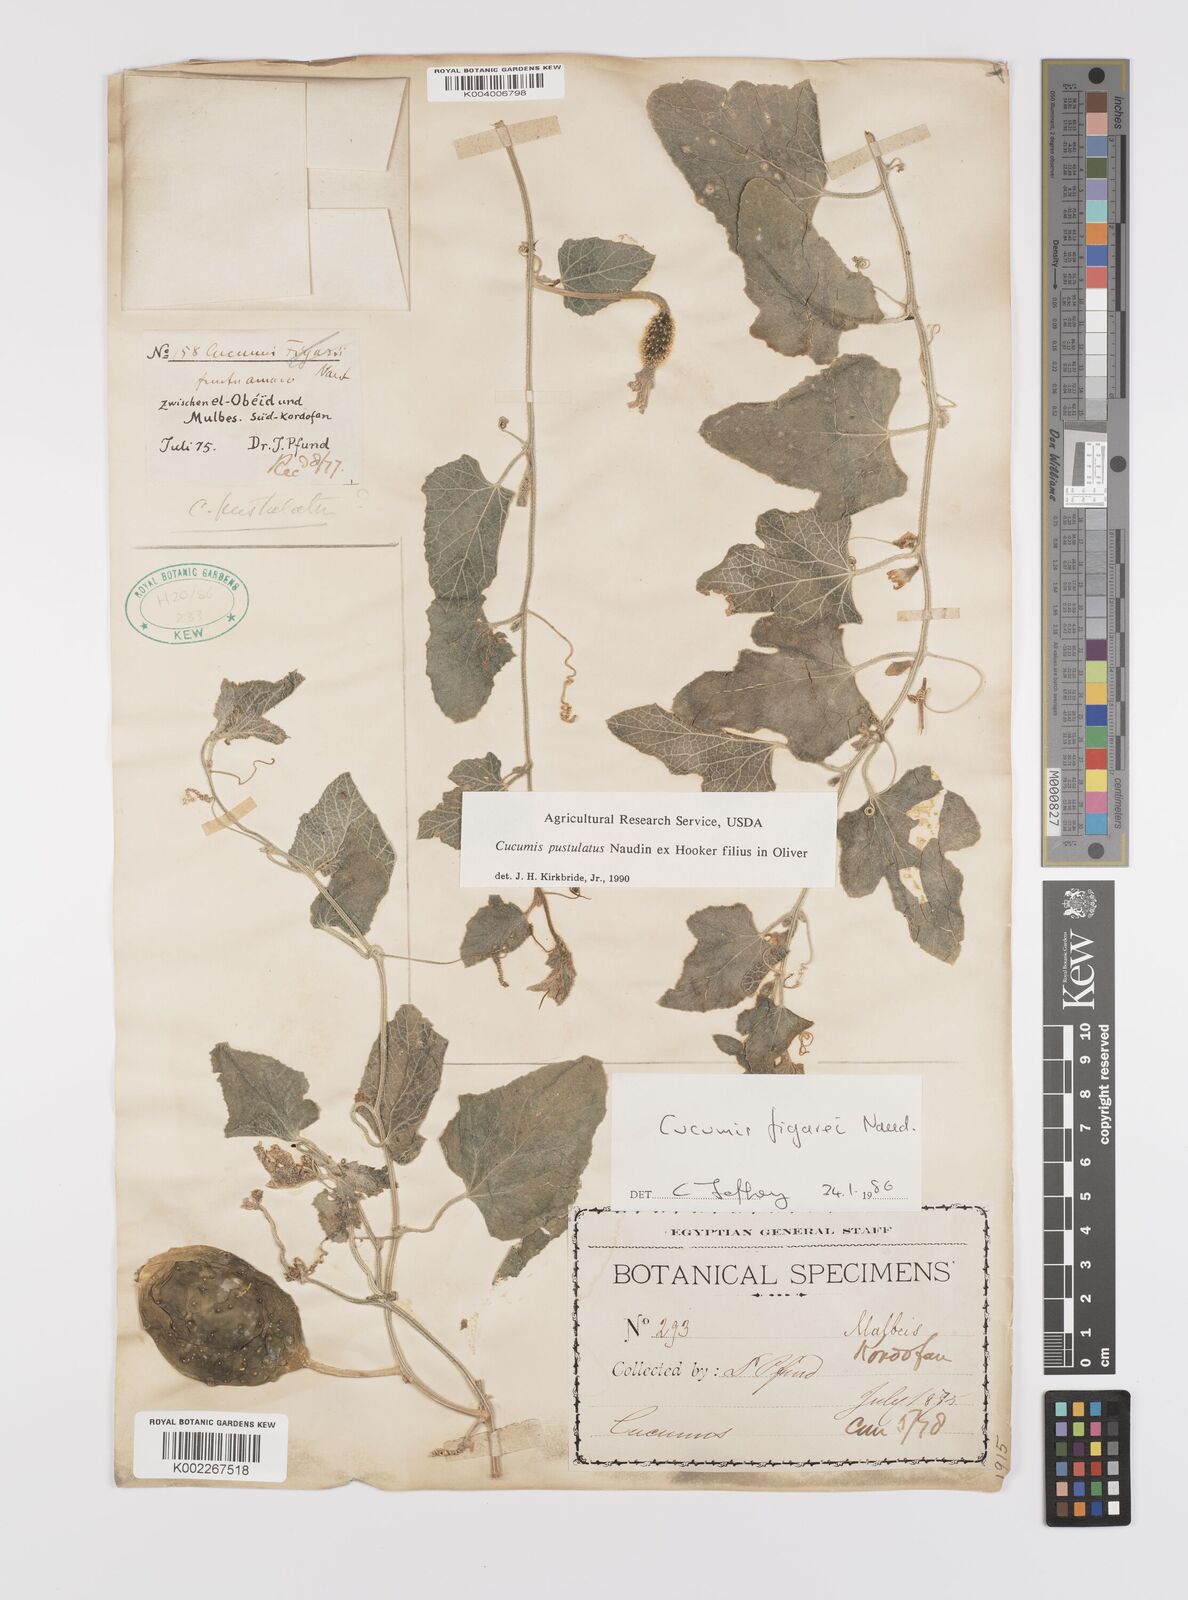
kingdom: Plantae
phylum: Tracheophyta
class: Magnoliopsida
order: Cucurbitales
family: Cucurbitaceae
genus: Cucumis
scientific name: Cucumis pustulatus
